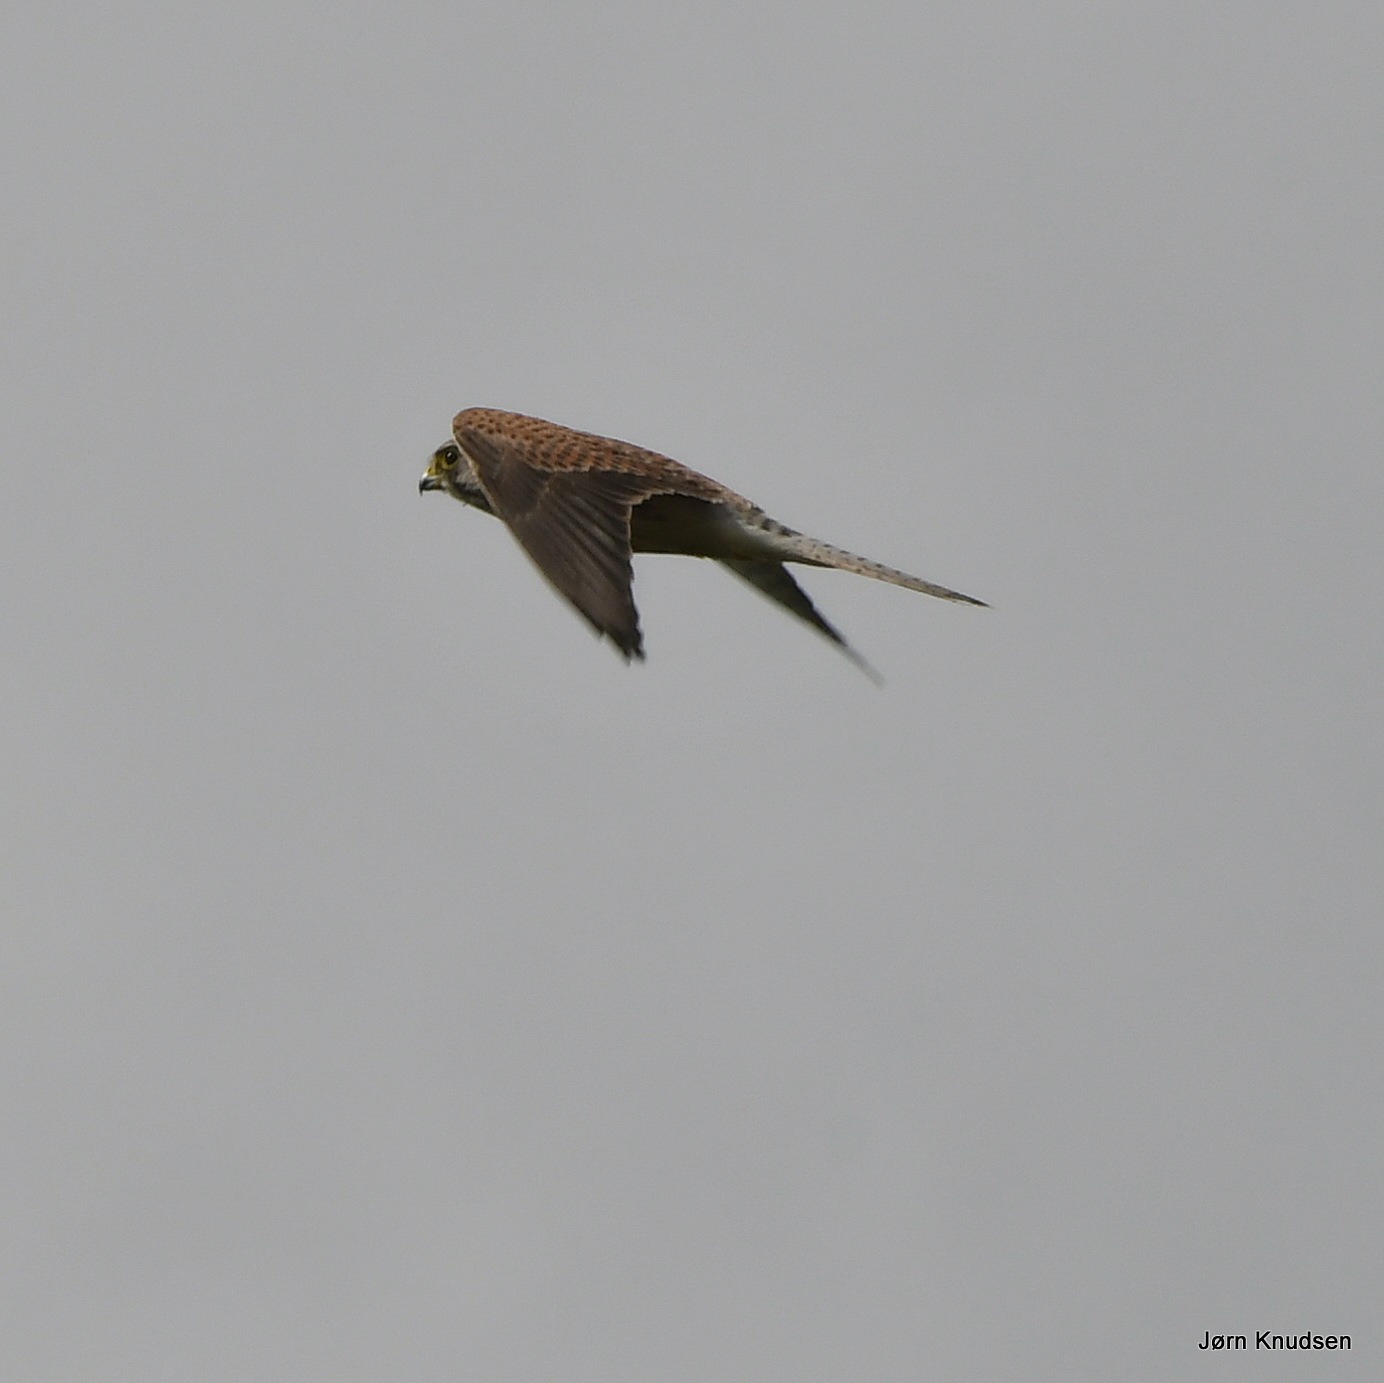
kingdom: Animalia
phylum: Chordata
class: Aves
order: Falconiformes
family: Falconidae
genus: Falco
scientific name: Falco tinnunculus
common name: Tårnfalk
